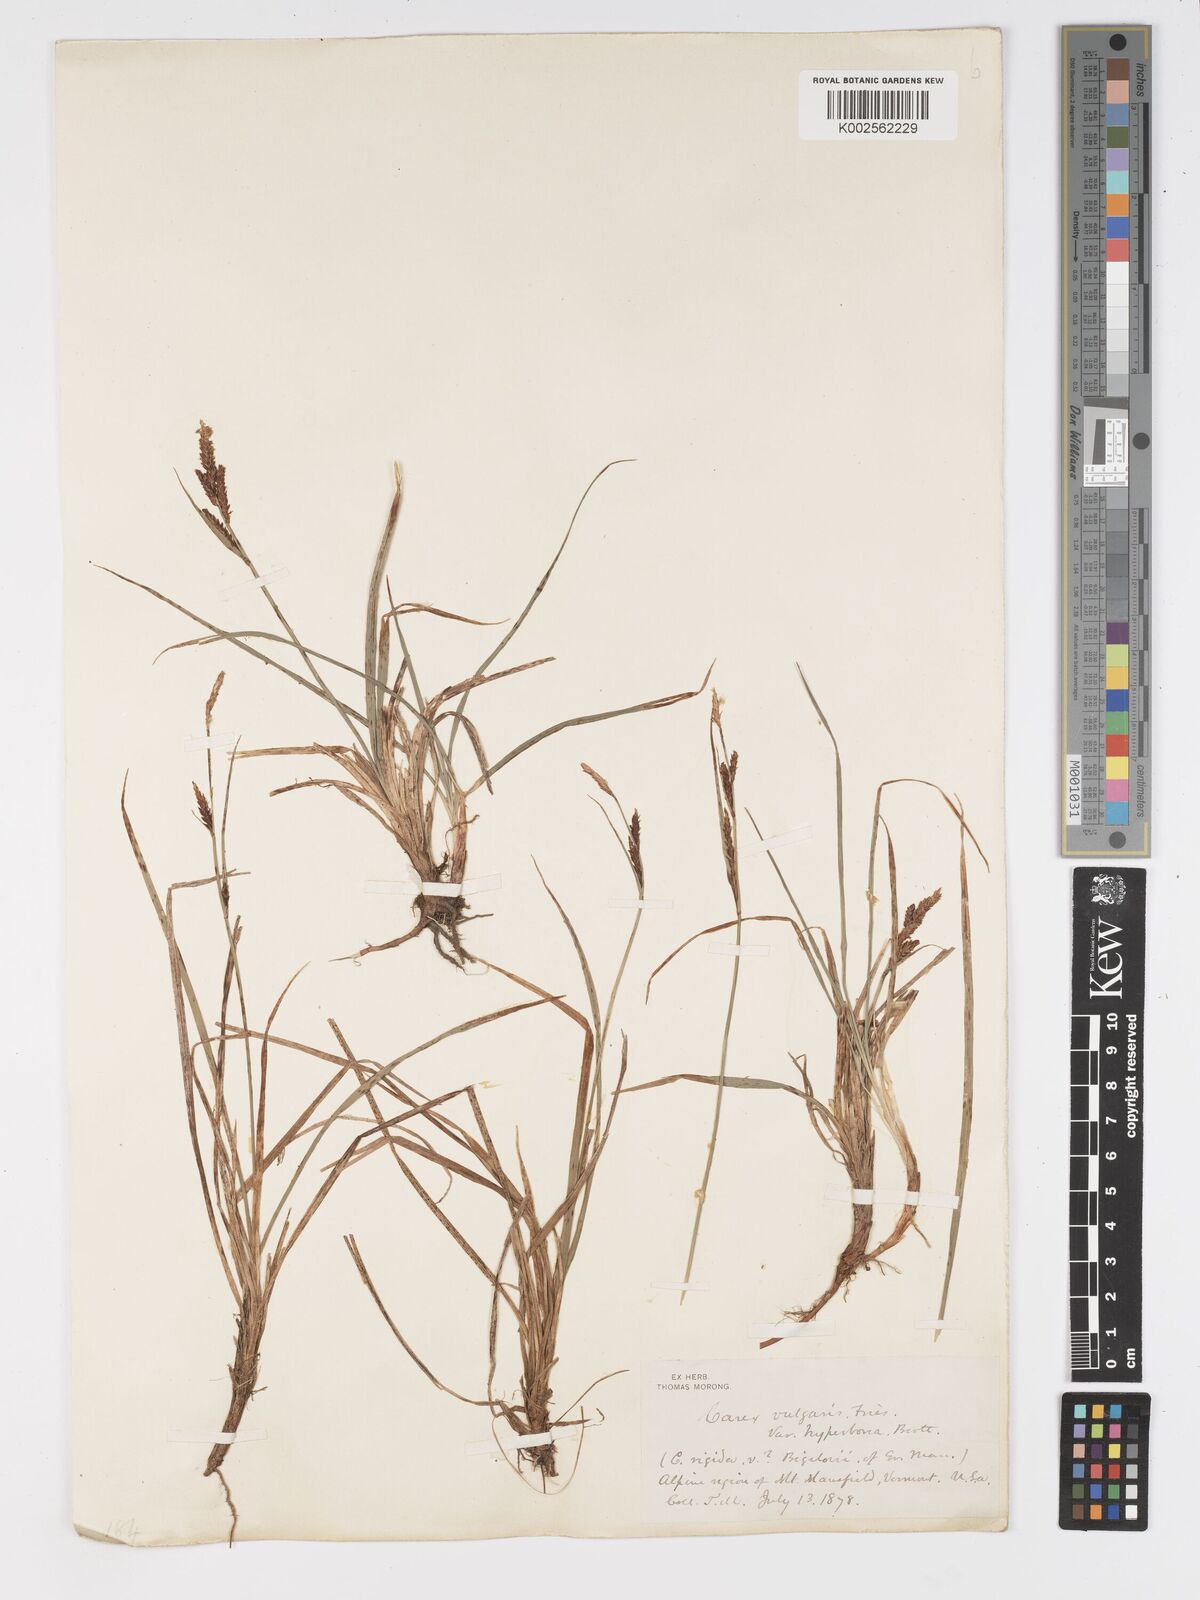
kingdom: Plantae
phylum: Tracheophyta
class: Liliopsida
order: Poales
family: Cyperaceae
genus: Carex
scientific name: Carex nigra
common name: Common sedge
